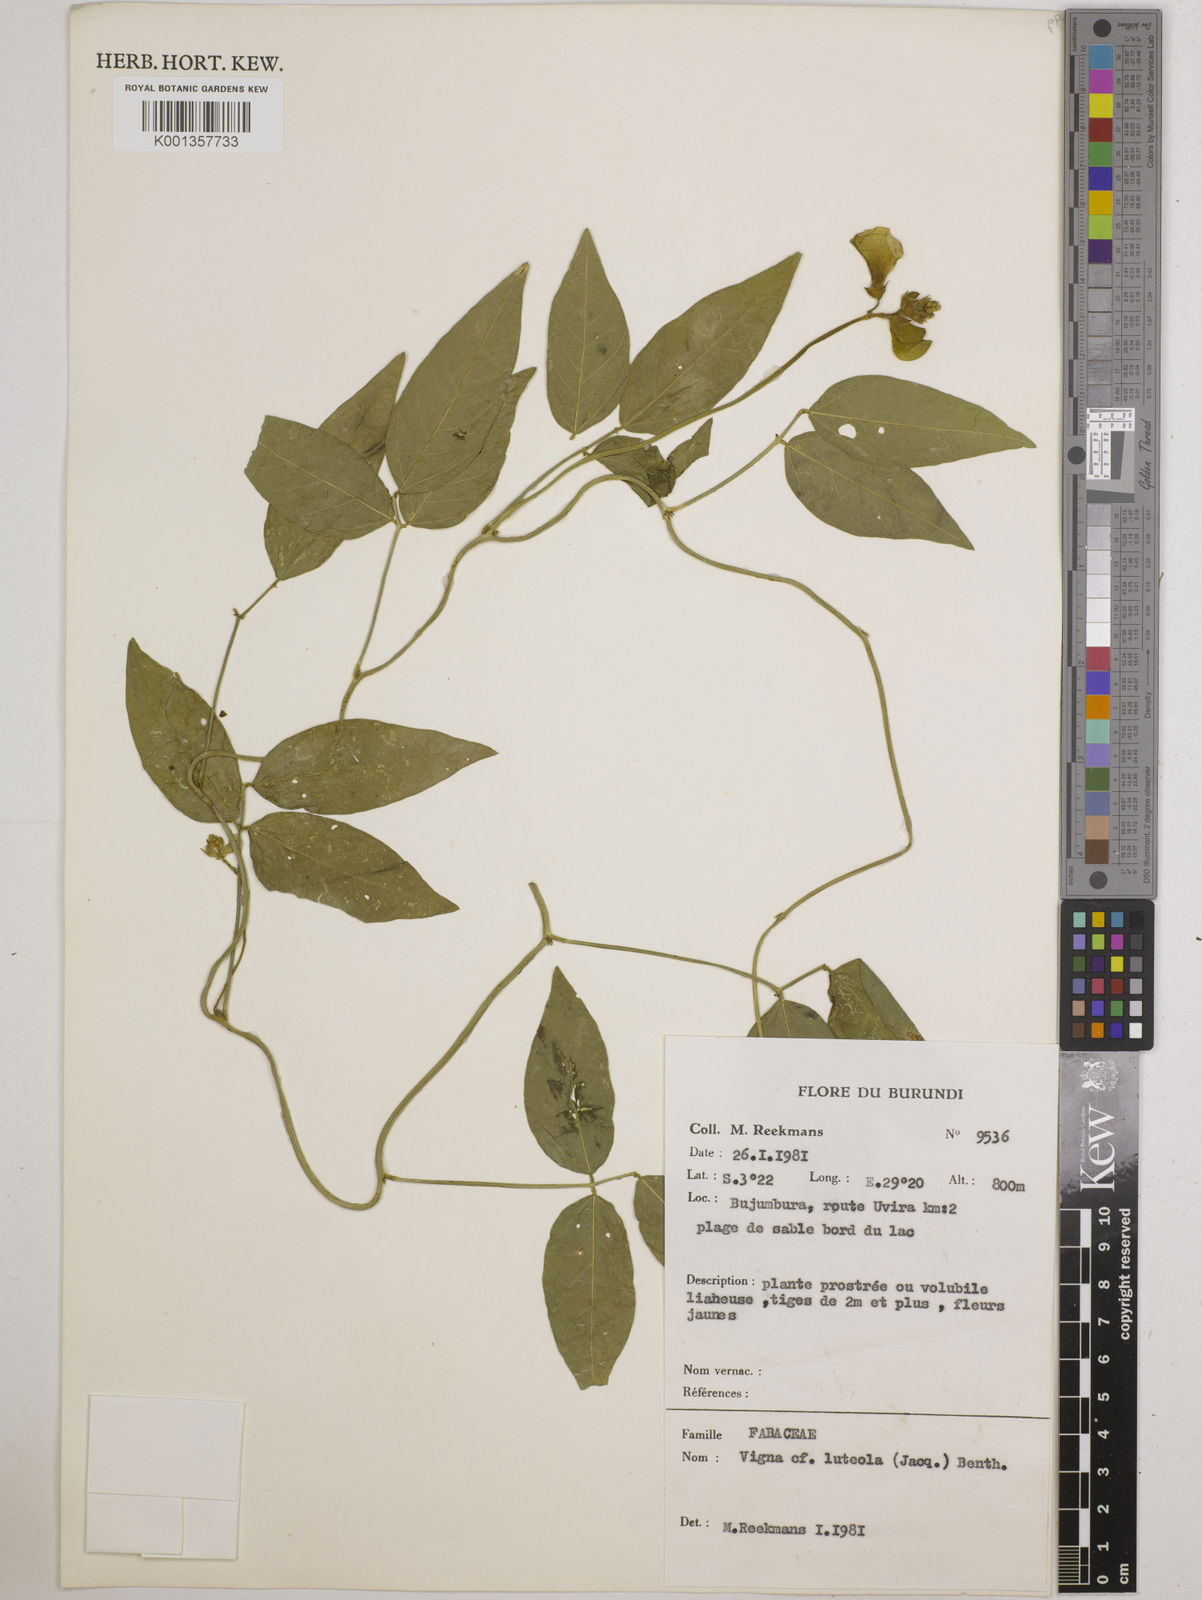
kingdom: Plantae
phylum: Tracheophyta
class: Magnoliopsida
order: Fabales
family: Fabaceae
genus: Vigna
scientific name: Vigna luteola
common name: Hairypod cowpea
